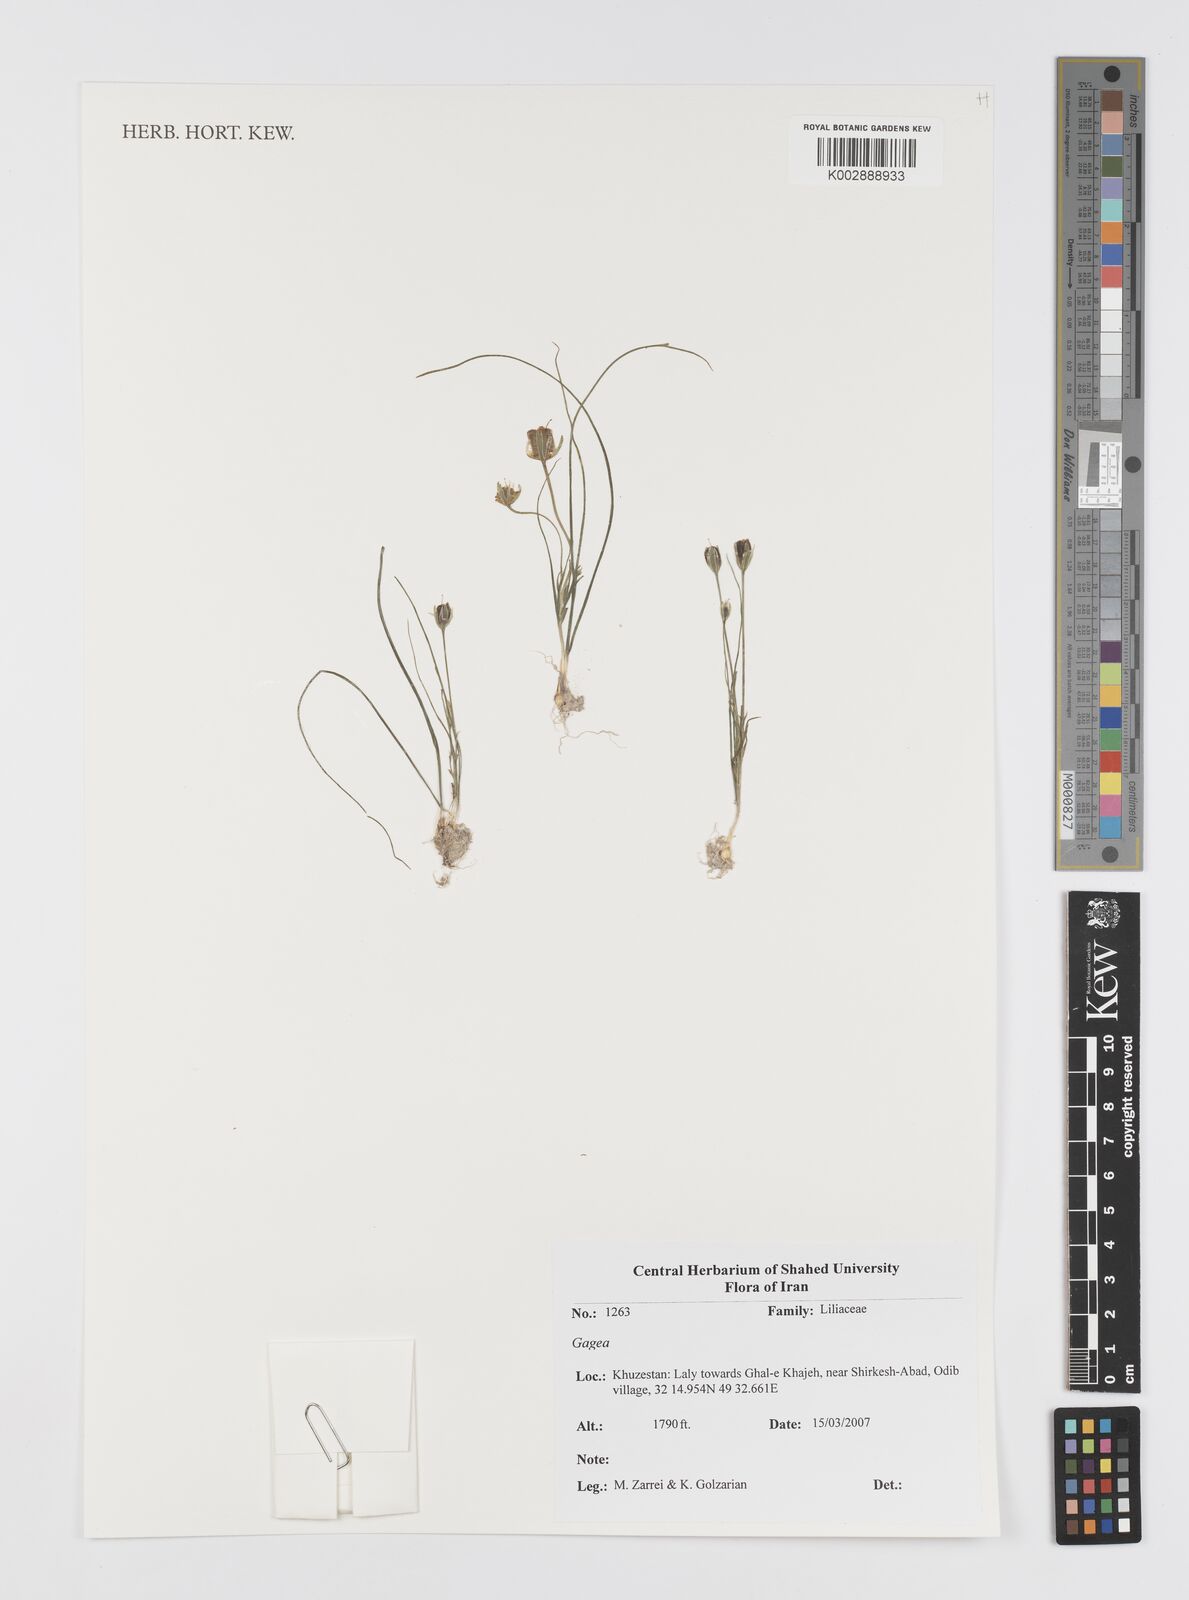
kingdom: Plantae
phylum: Tracheophyta
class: Liliopsida
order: Liliales
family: Liliaceae
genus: Gagea
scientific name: Gagea
